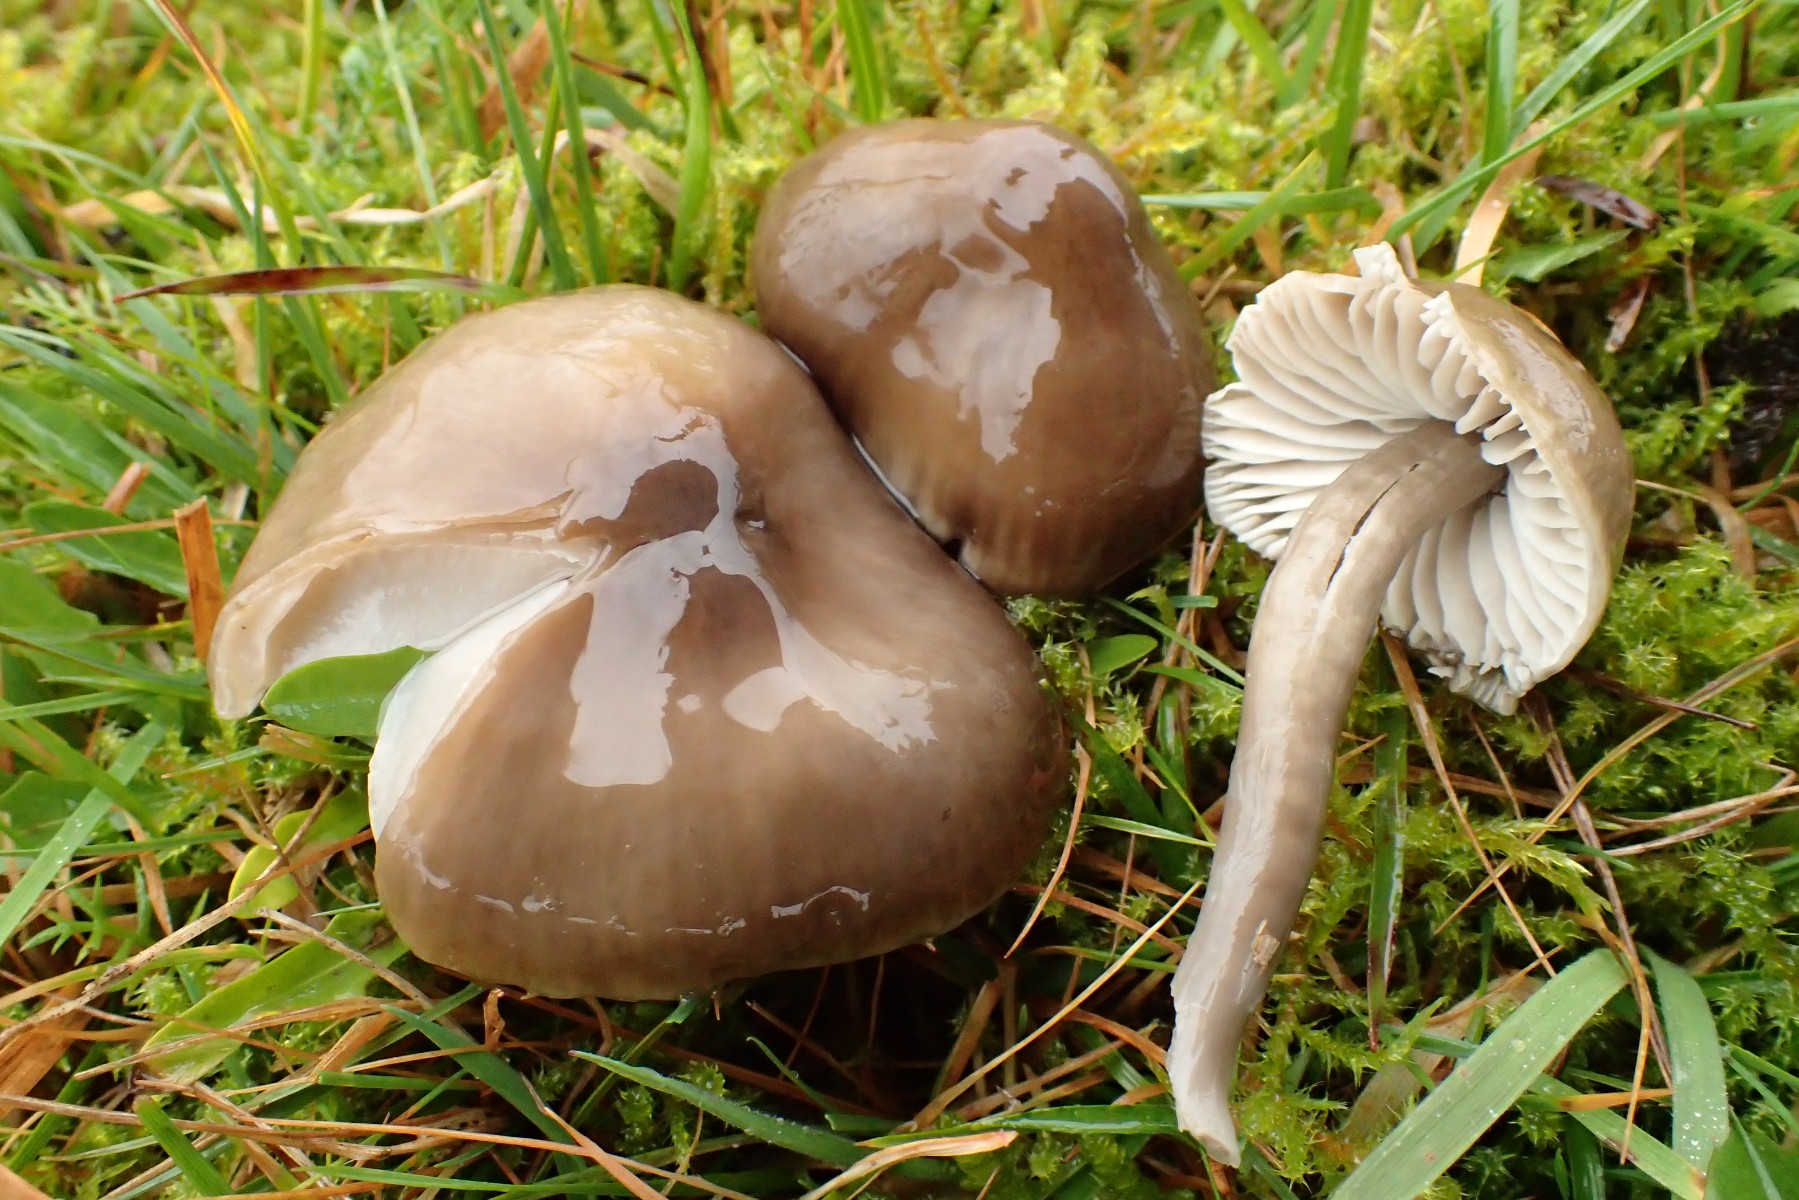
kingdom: Fungi
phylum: Basidiomycota
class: Agaricomycetes
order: Agaricales
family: Hygrophoraceae
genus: Gliophorus
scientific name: Gliophorus irrigatus
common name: slimet vokshat
